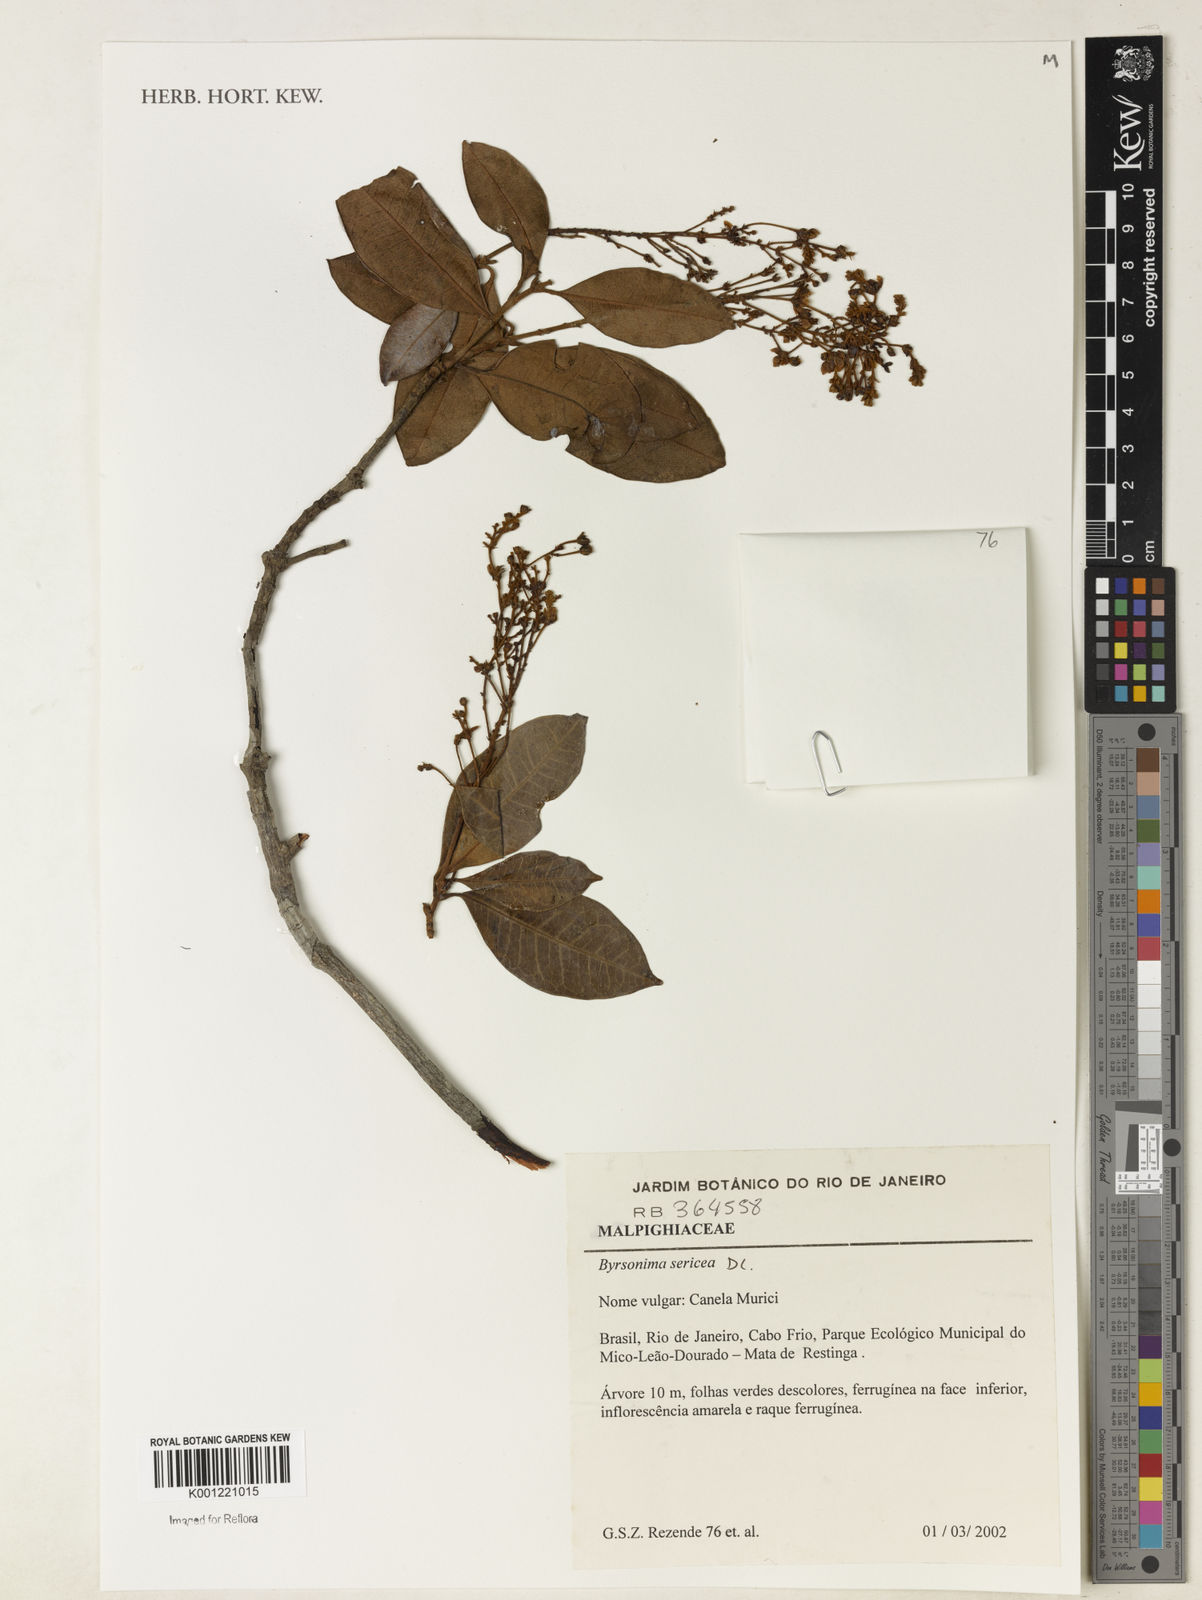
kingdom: Plantae
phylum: Tracheophyta
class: Magnoliopsida
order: Malpighiales
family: Malpighiaceae
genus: Byrsonima
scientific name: Byrsonima sericea
